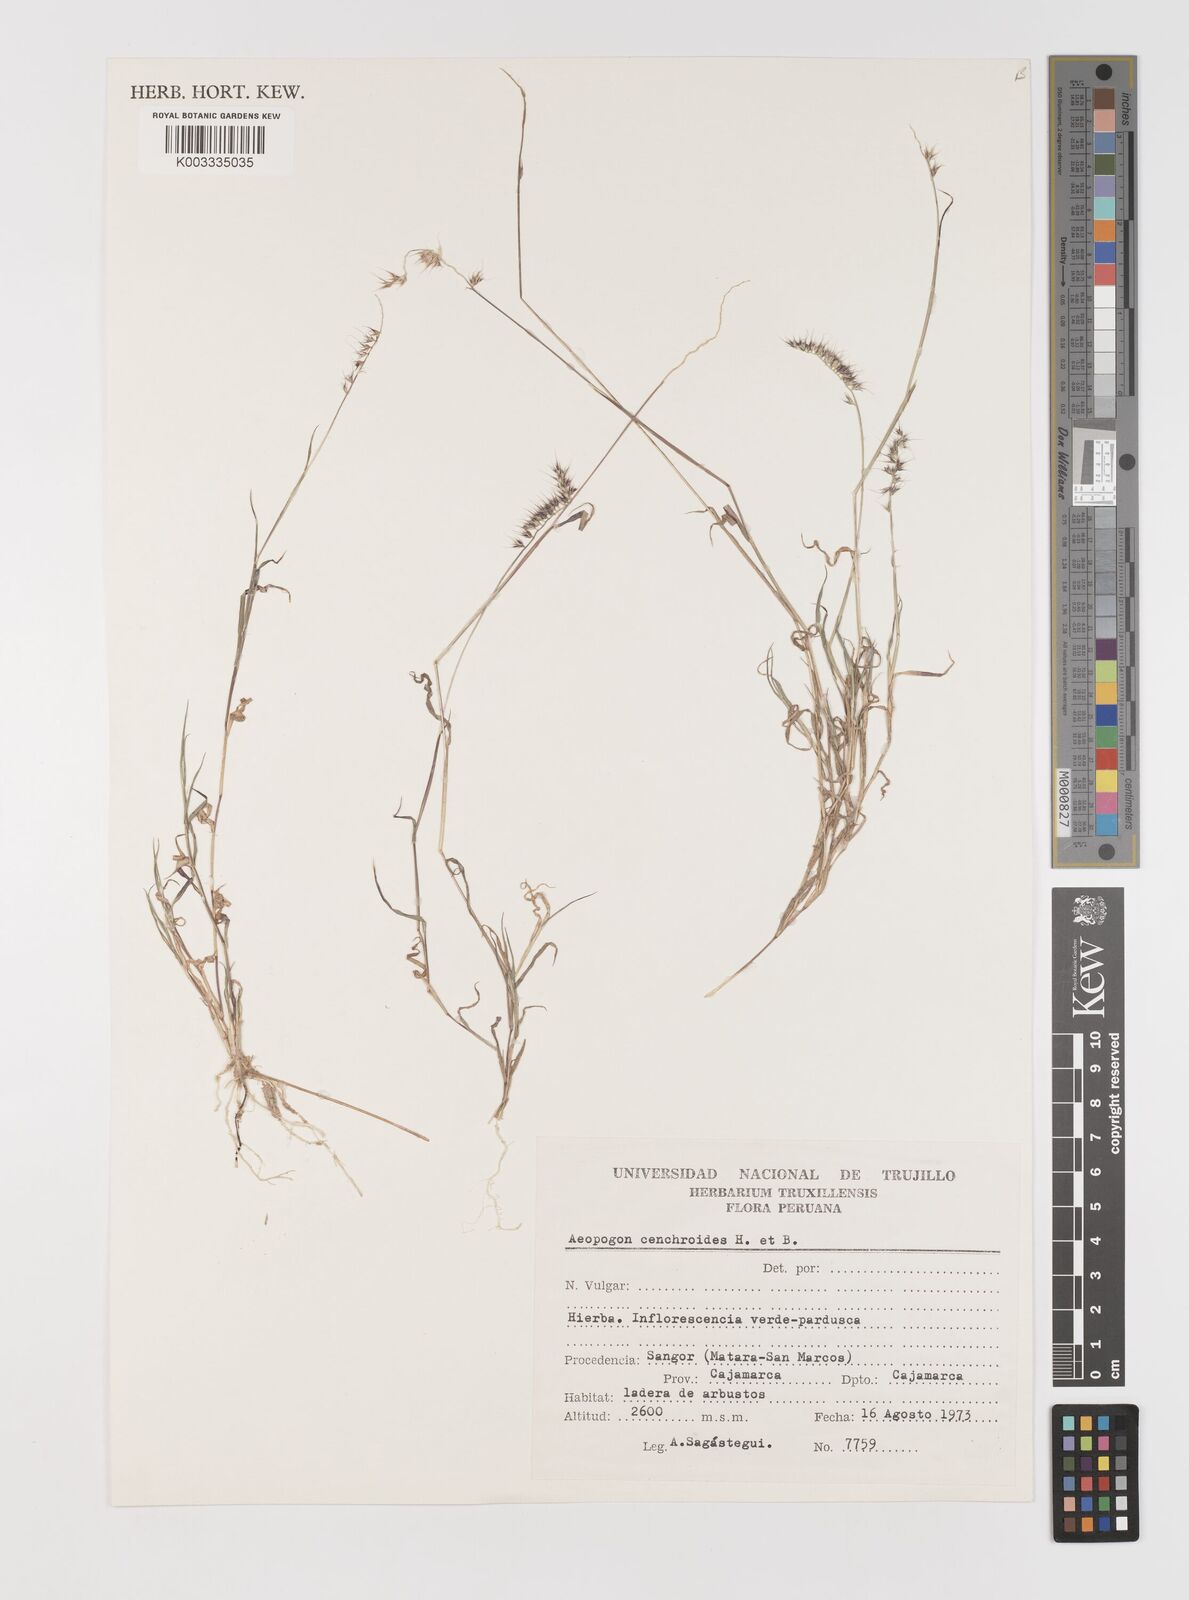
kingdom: Plantae
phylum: Tracheophyta
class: Liliopsida
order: Poales
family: Poaceae
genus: Muhlenbergia
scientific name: Muhlenbergia cenchroides
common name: Relaxgrass
